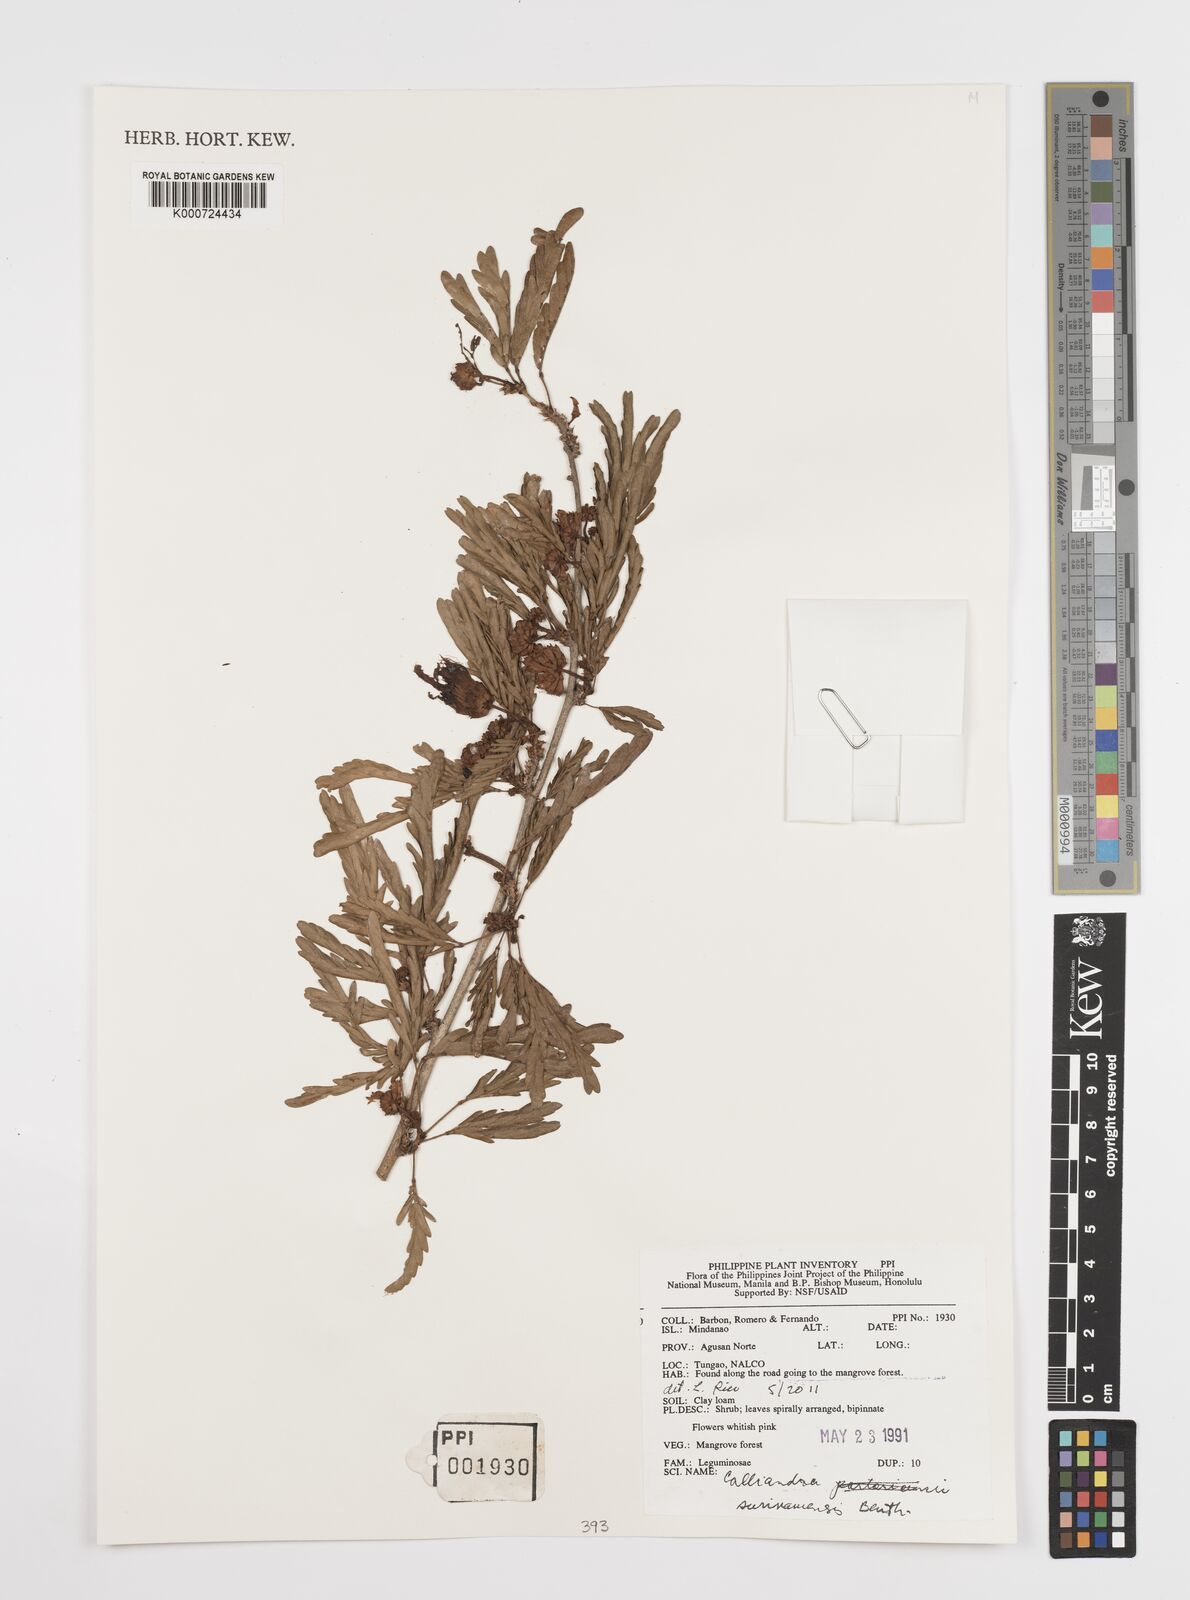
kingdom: Plantae
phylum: Tracheophyta
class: Magnoliopsida
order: Fabales
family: Fabaceae
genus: Calliandra
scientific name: Calliandra surinamensis
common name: Pink powder puff
